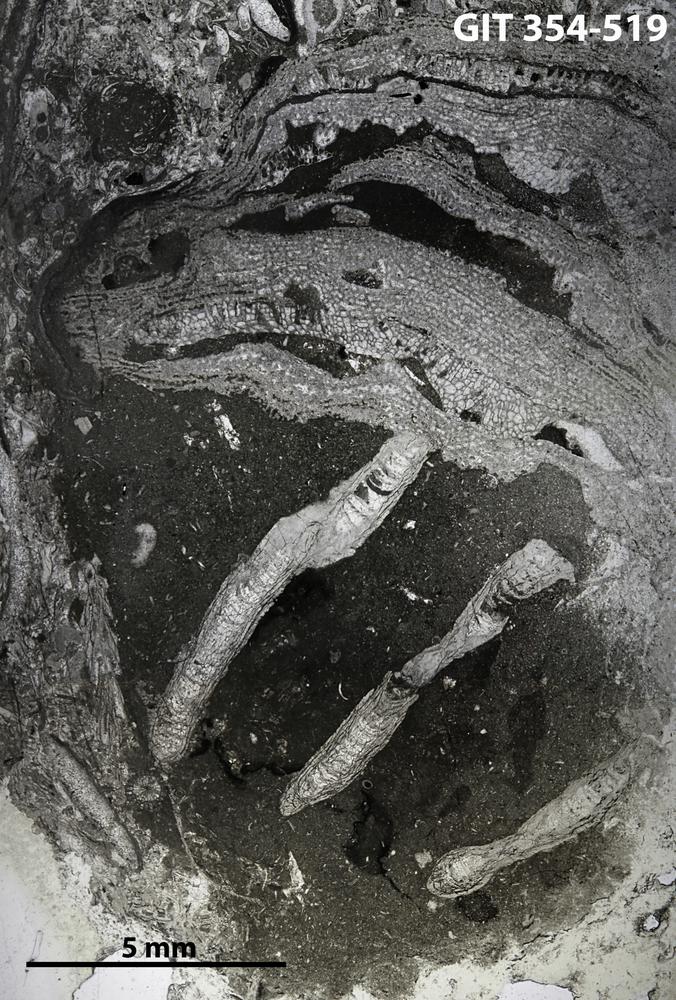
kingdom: Animalia
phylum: Porifera
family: Stromatoporellidae
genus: Simplexodictyon
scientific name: Simplexodictyon
